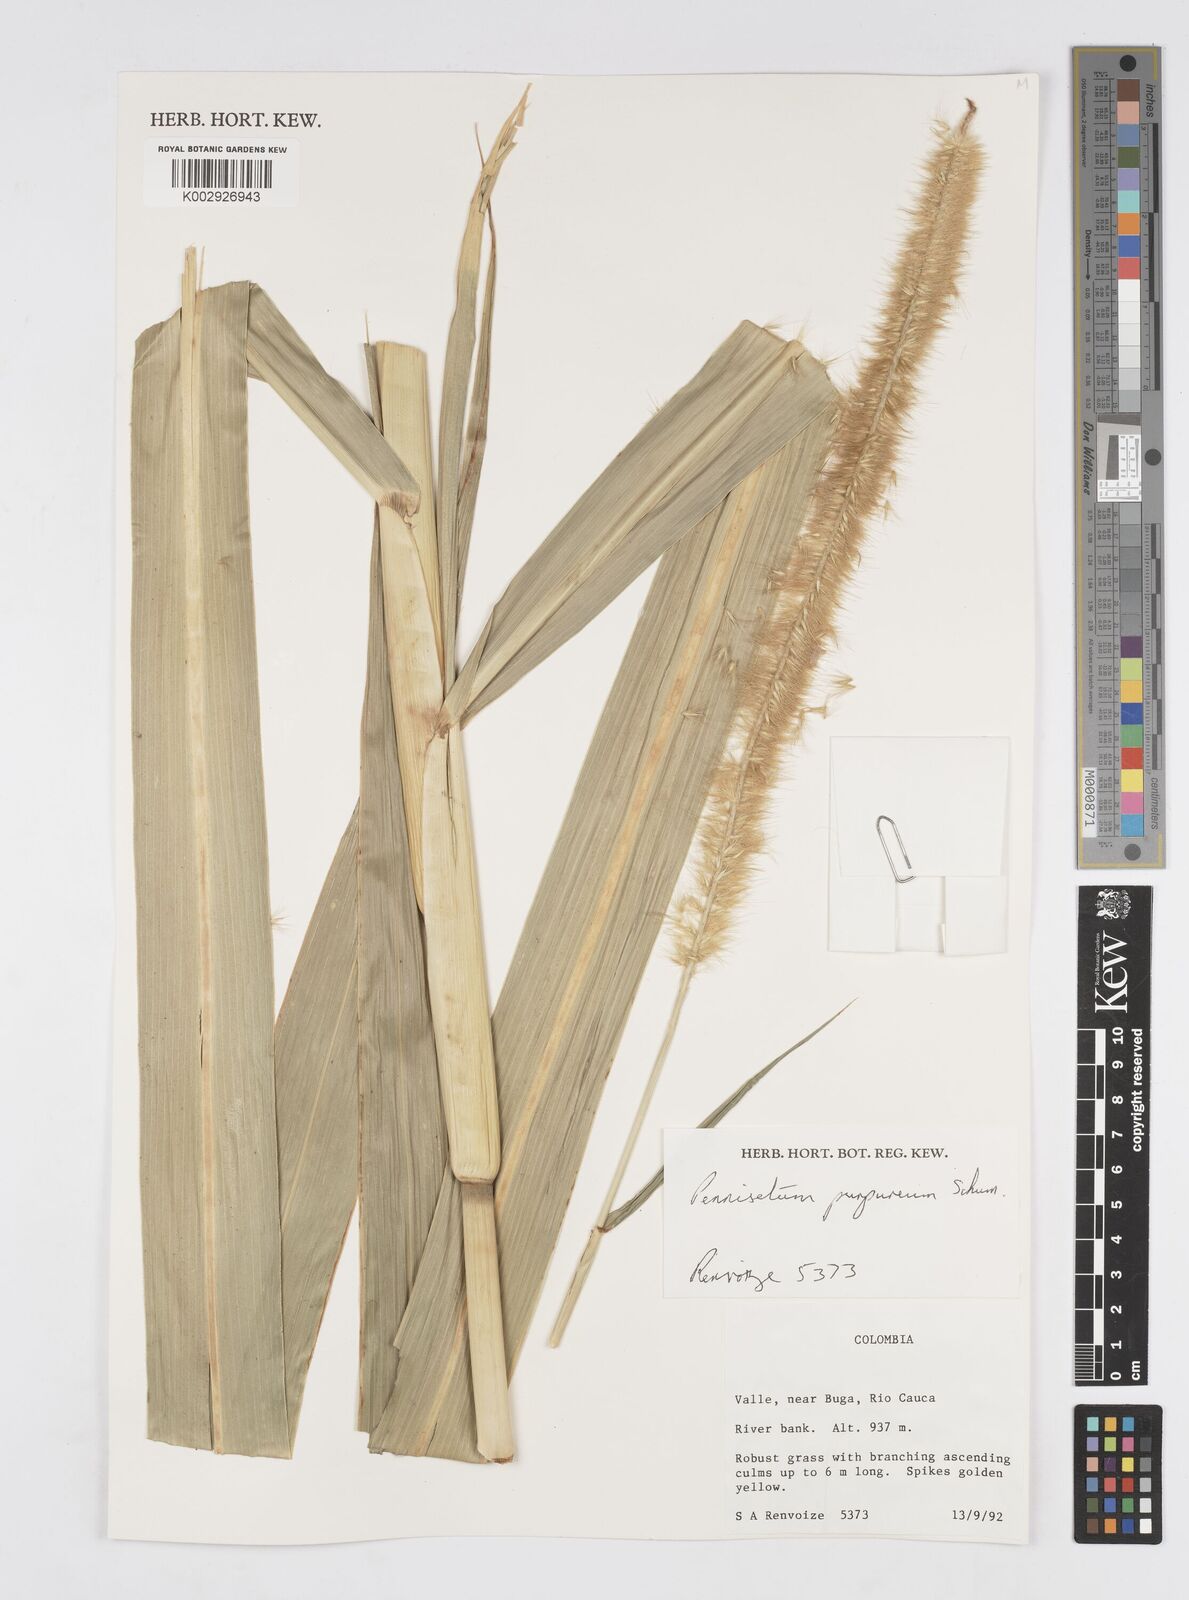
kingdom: Plantae
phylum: Tracheophyta
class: Liliopsida
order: Poales
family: Poaceae
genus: Cenchrus
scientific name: Cenchrus purpureus
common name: Elephant grass
